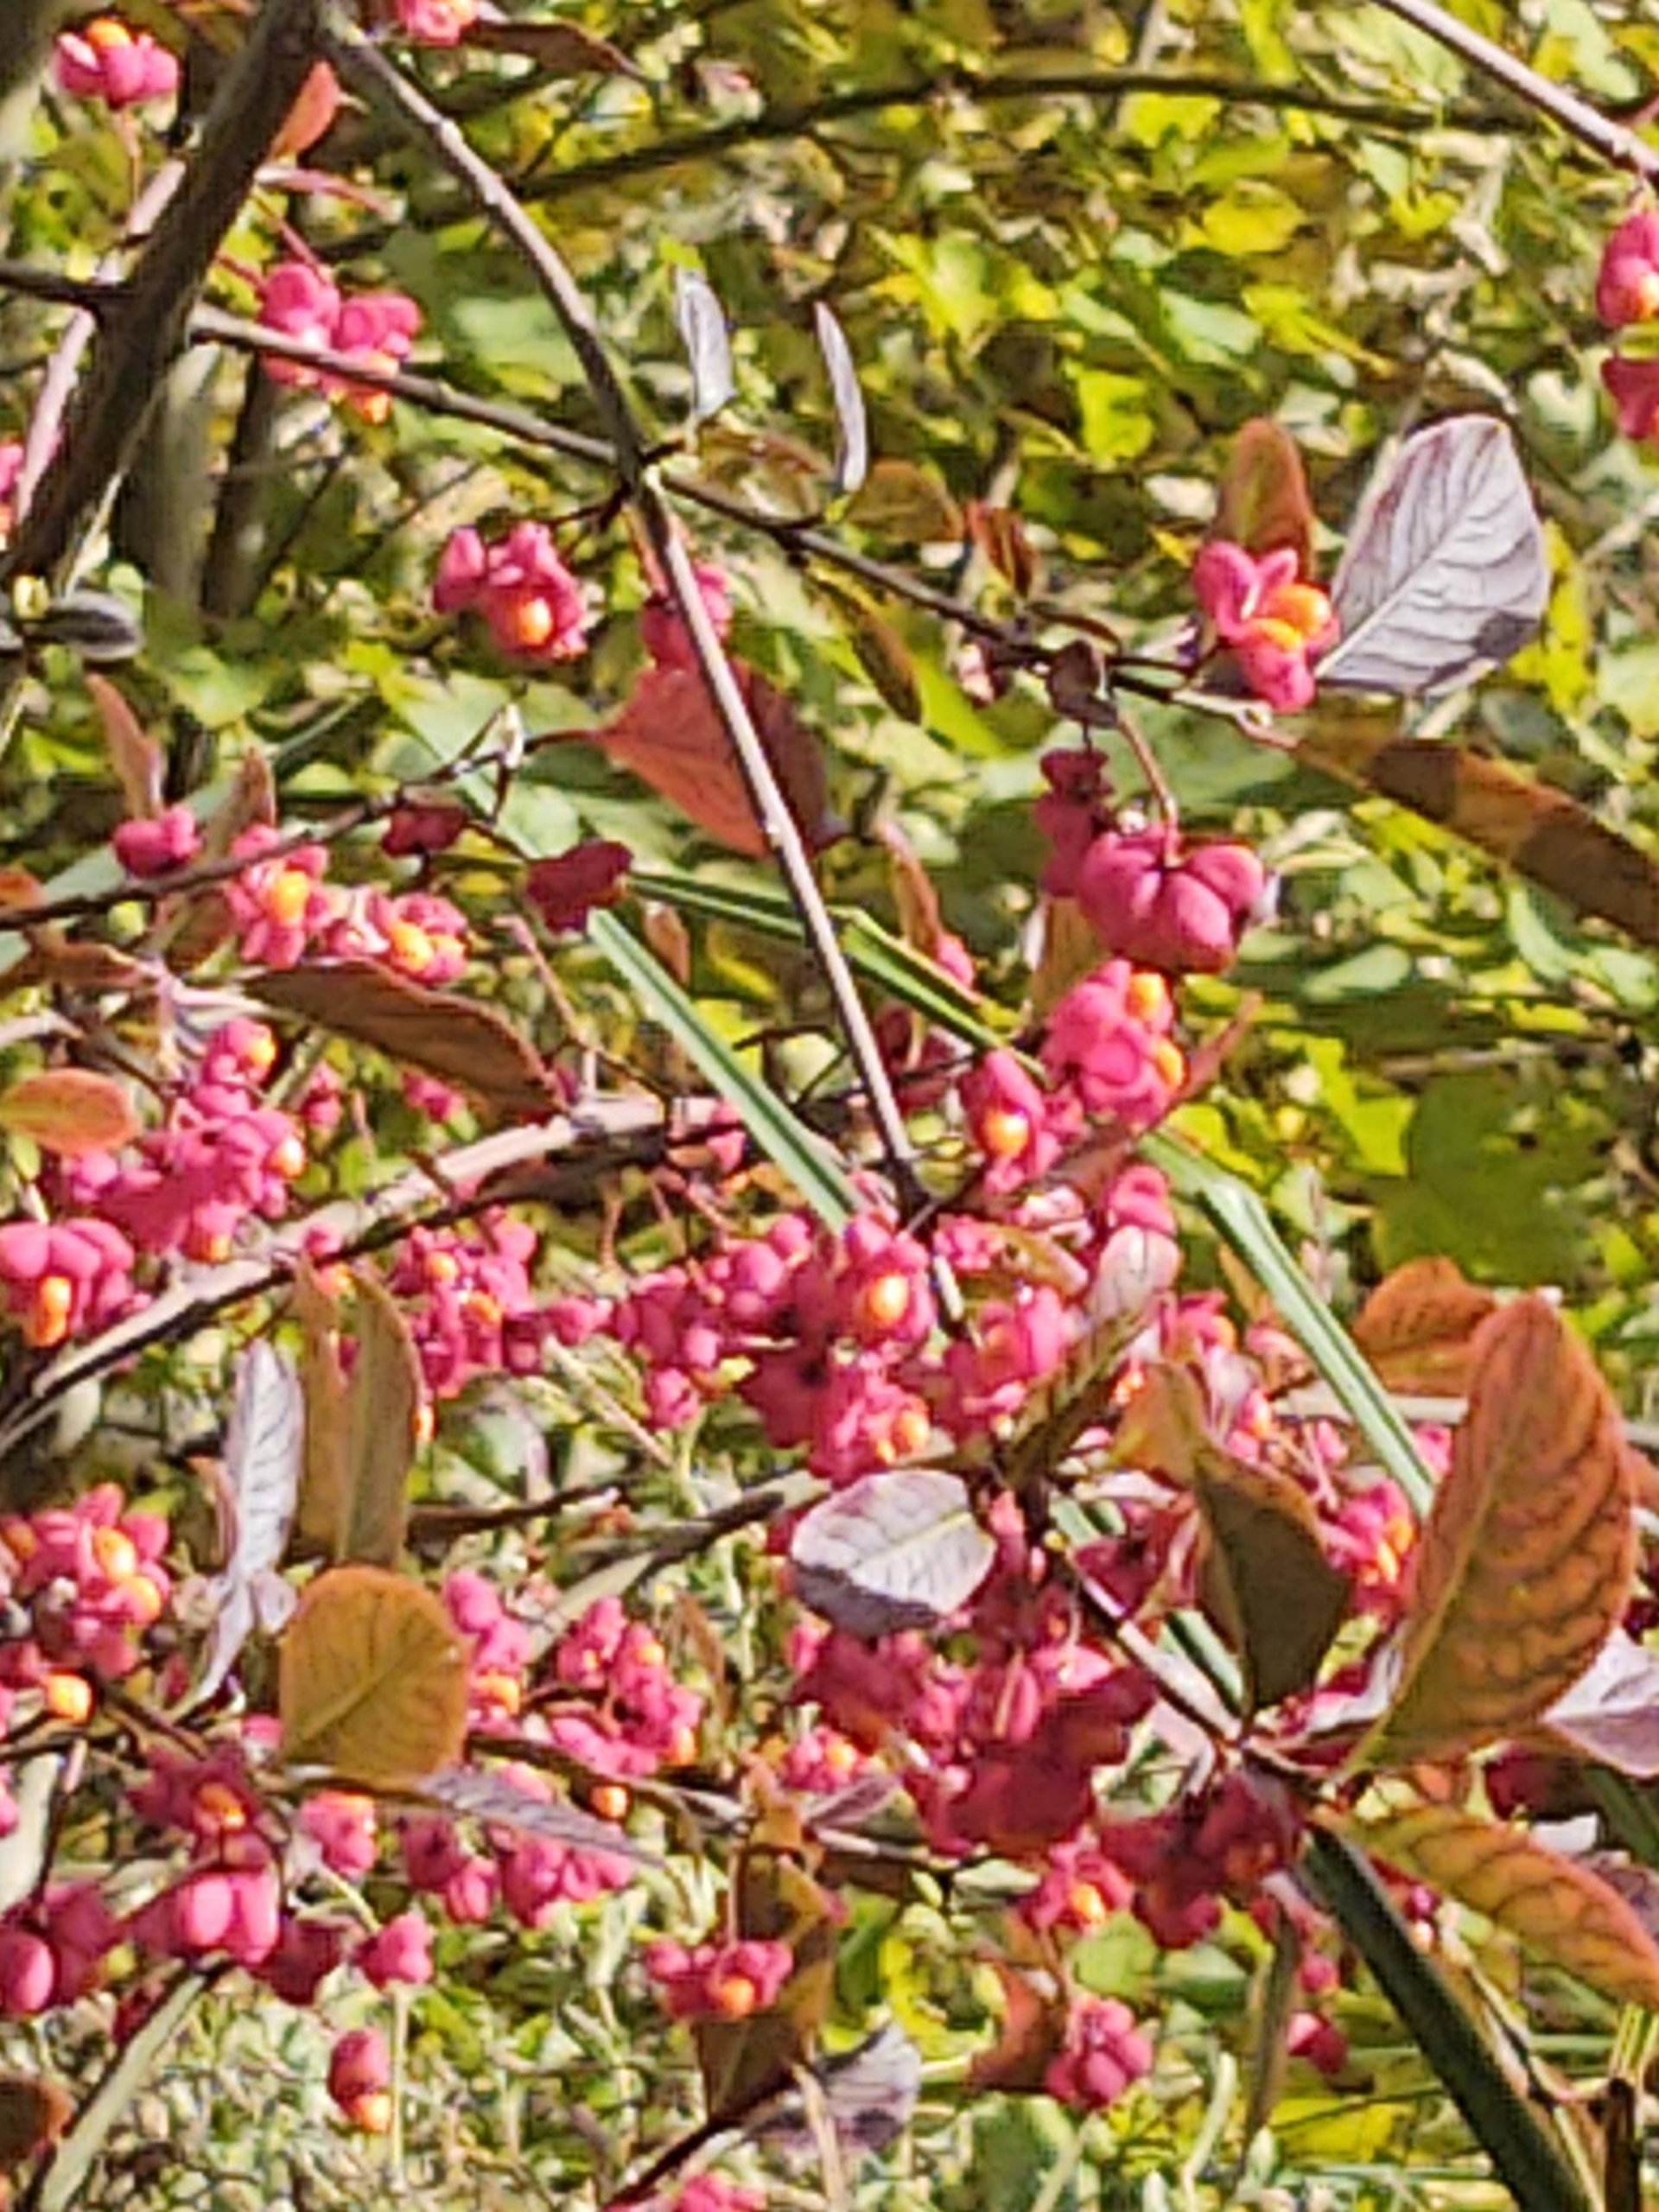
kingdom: Plantae
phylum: Tracheophyta
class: Magnoliopsida
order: Celastrales
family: Celastraceae
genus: Euonymus
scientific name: Euonymus europaeus
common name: Benved
